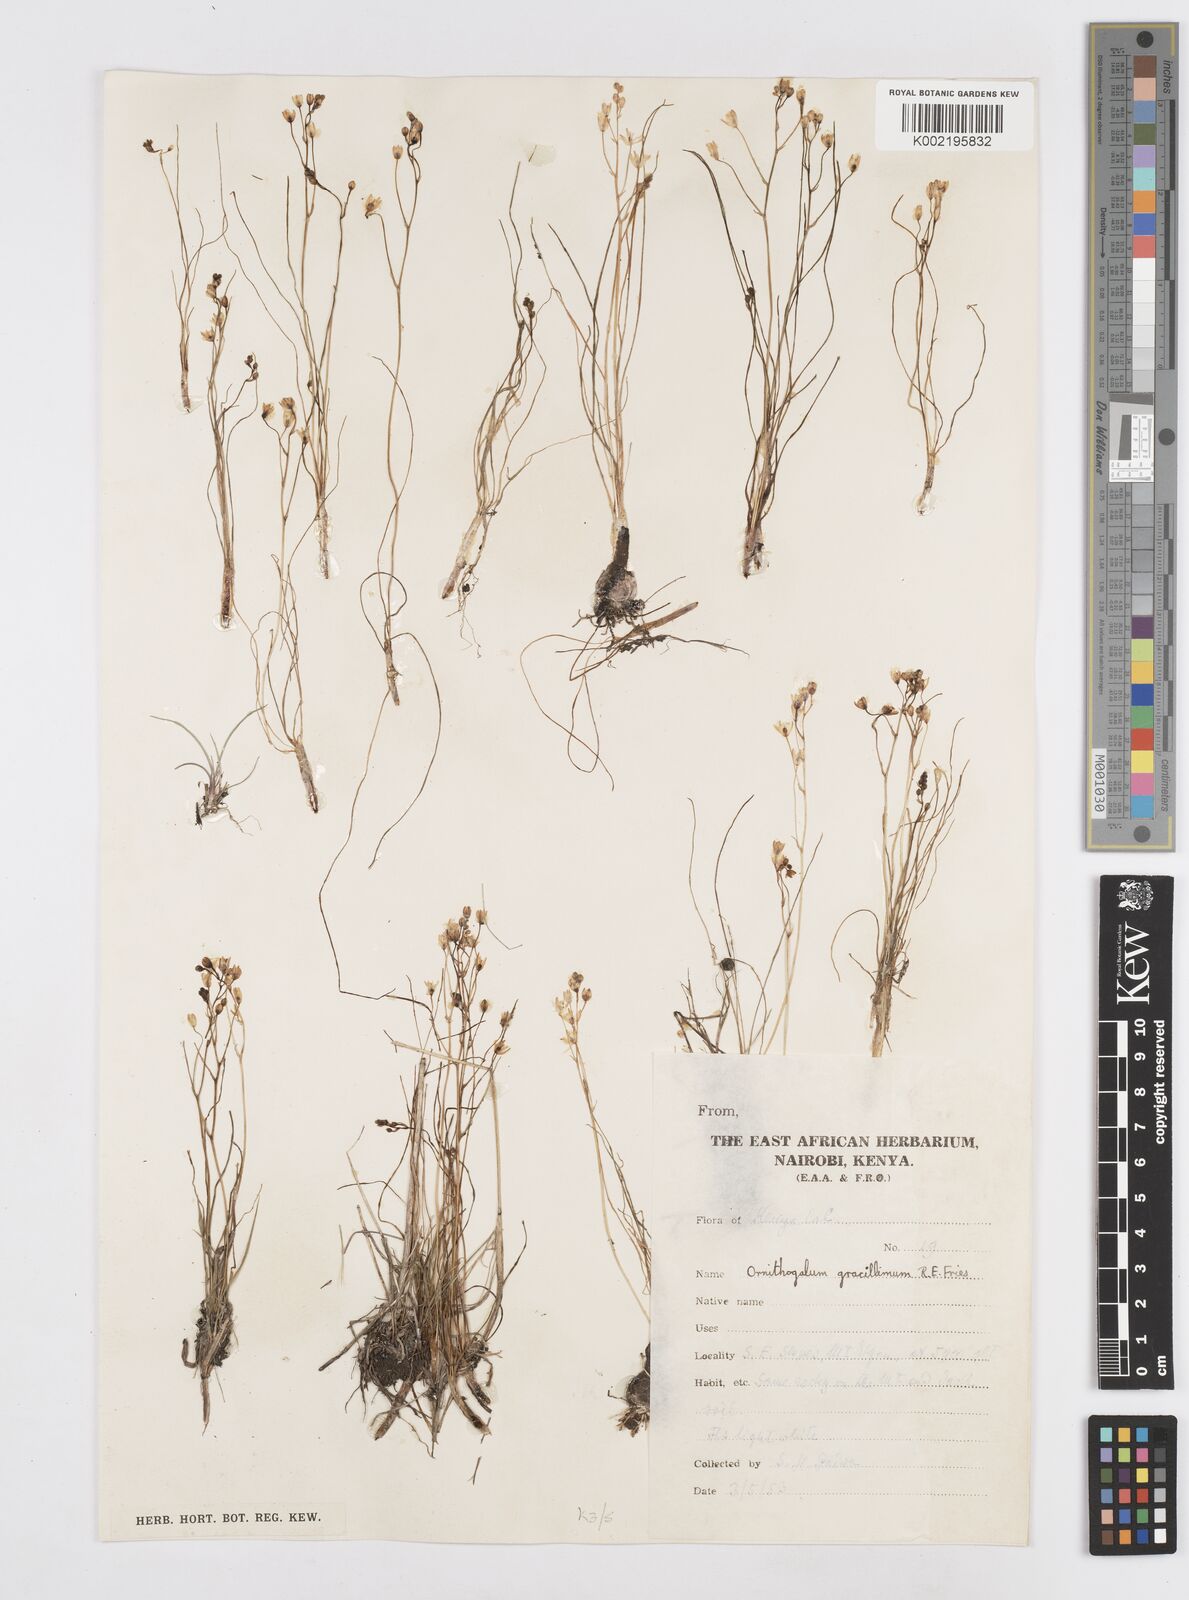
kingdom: Plantae
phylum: Tracheophyta
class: Liliopsida
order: Asparagales
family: Asparagaceae
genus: Ornithogalum
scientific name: Ornithogalum gracillimum
